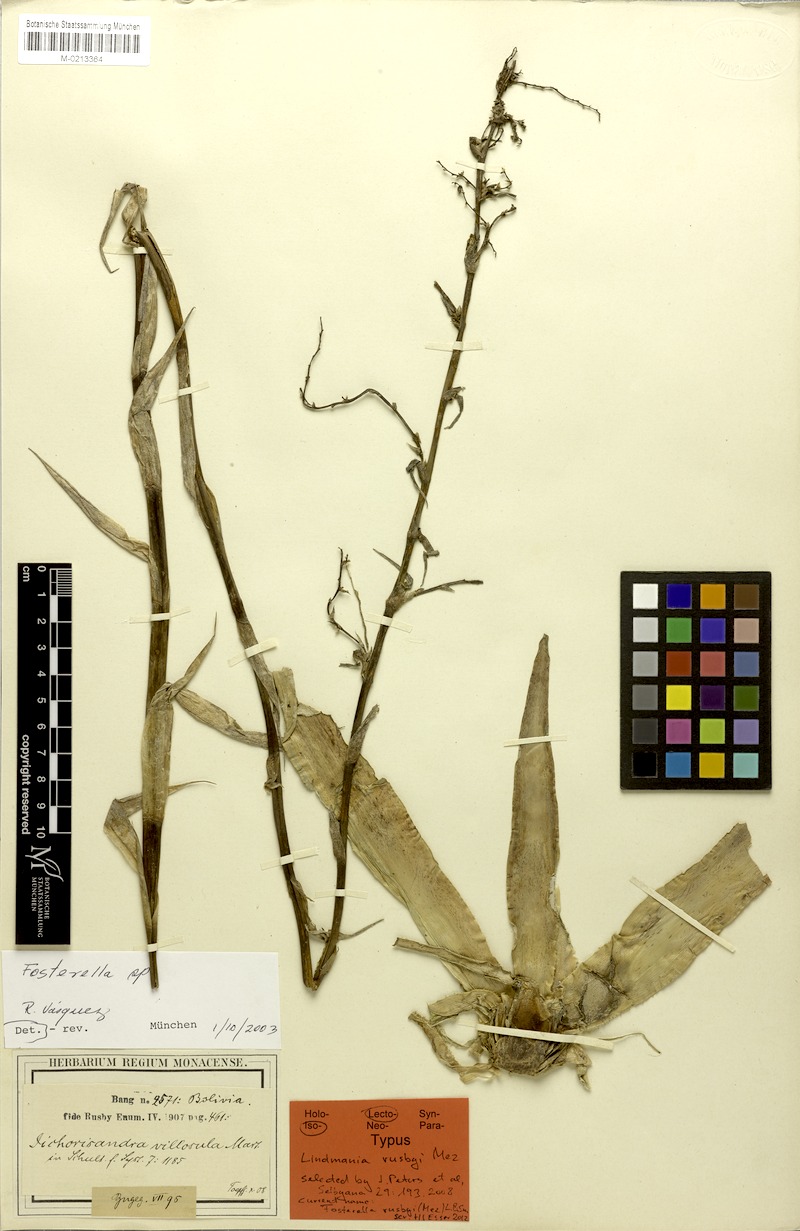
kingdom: Plantae
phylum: Tracheophyta
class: Liliopsida
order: Poales
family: Bromeliaceae
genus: Fosterella
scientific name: Fosterella rusbyi
